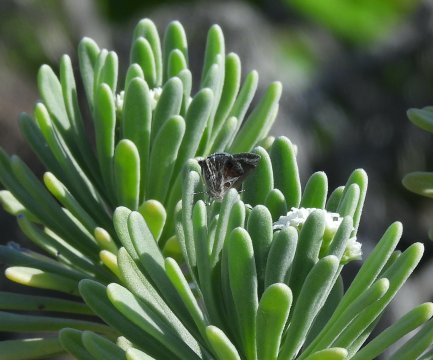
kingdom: Animalia
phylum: Arthropoda
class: Insecta
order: Lepidoptera
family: Lycaenidae
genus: Strymon
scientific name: Strymon bazochii
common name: Lantana Scrub-Hairstreak
